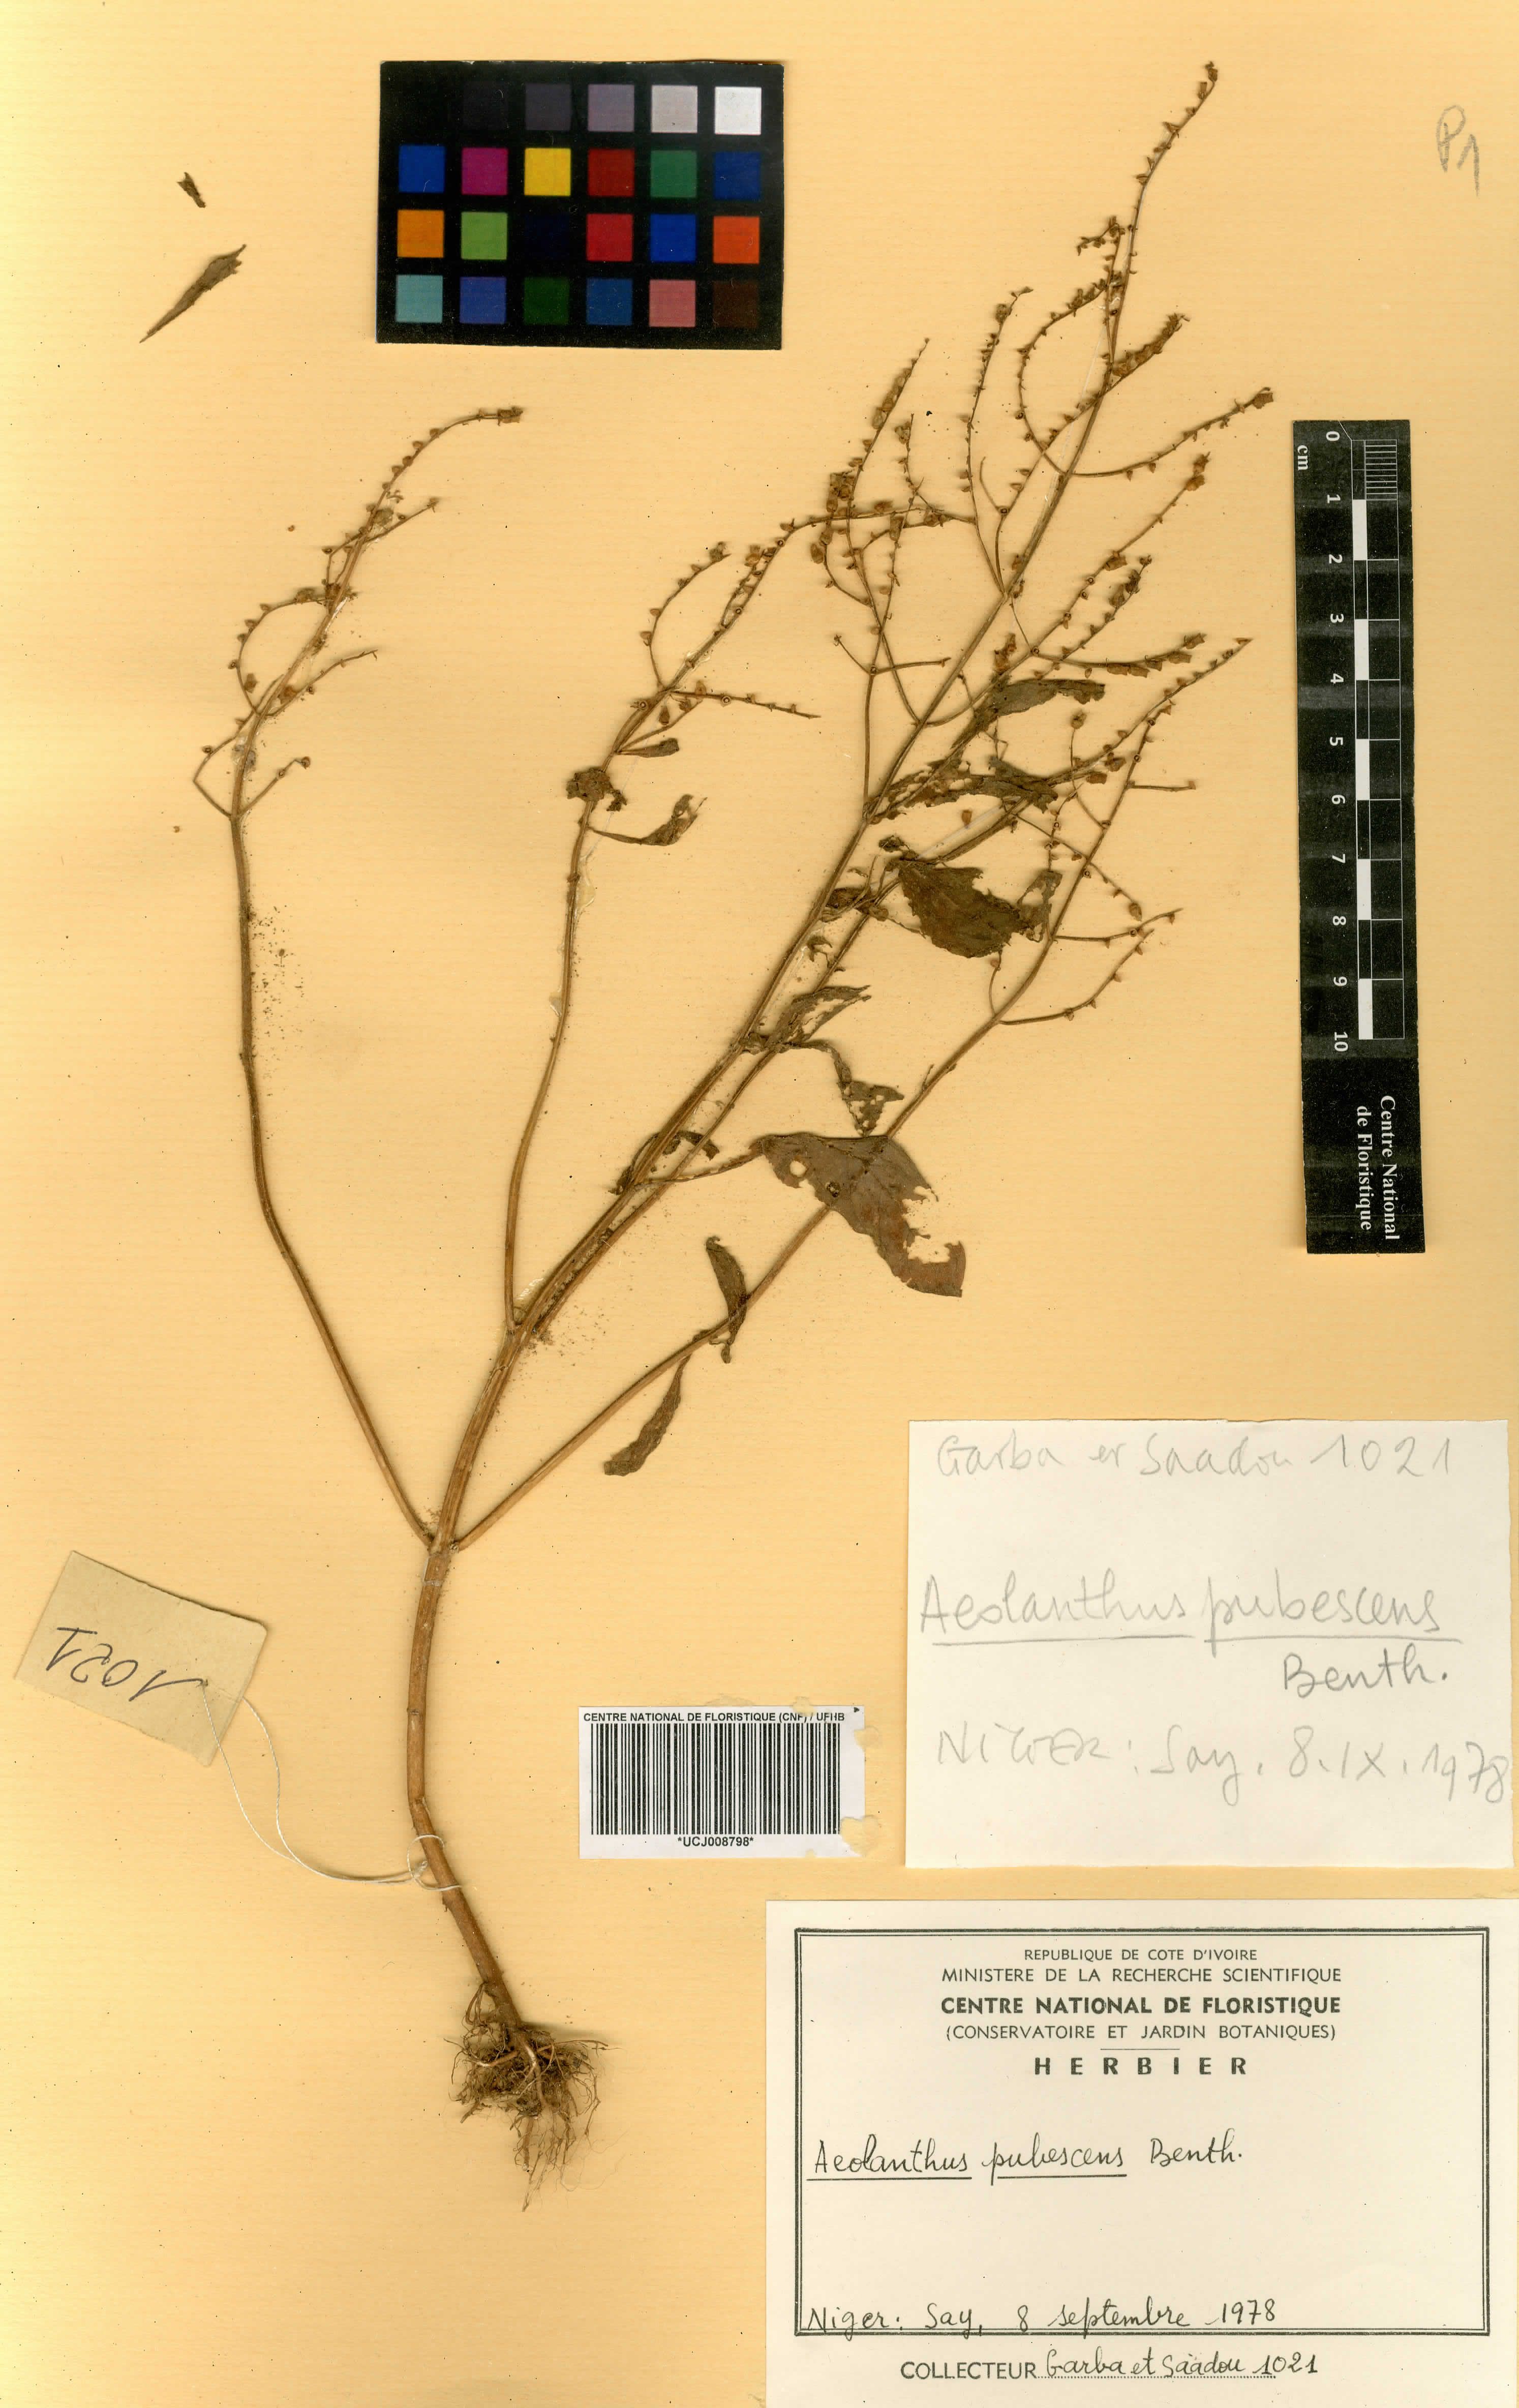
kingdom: Plantae
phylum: Tracheophyta
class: Magnoliopsida
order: Lamiales
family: Lamiaceae
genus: Aeollanthus
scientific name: Aeollanthus pubescens
